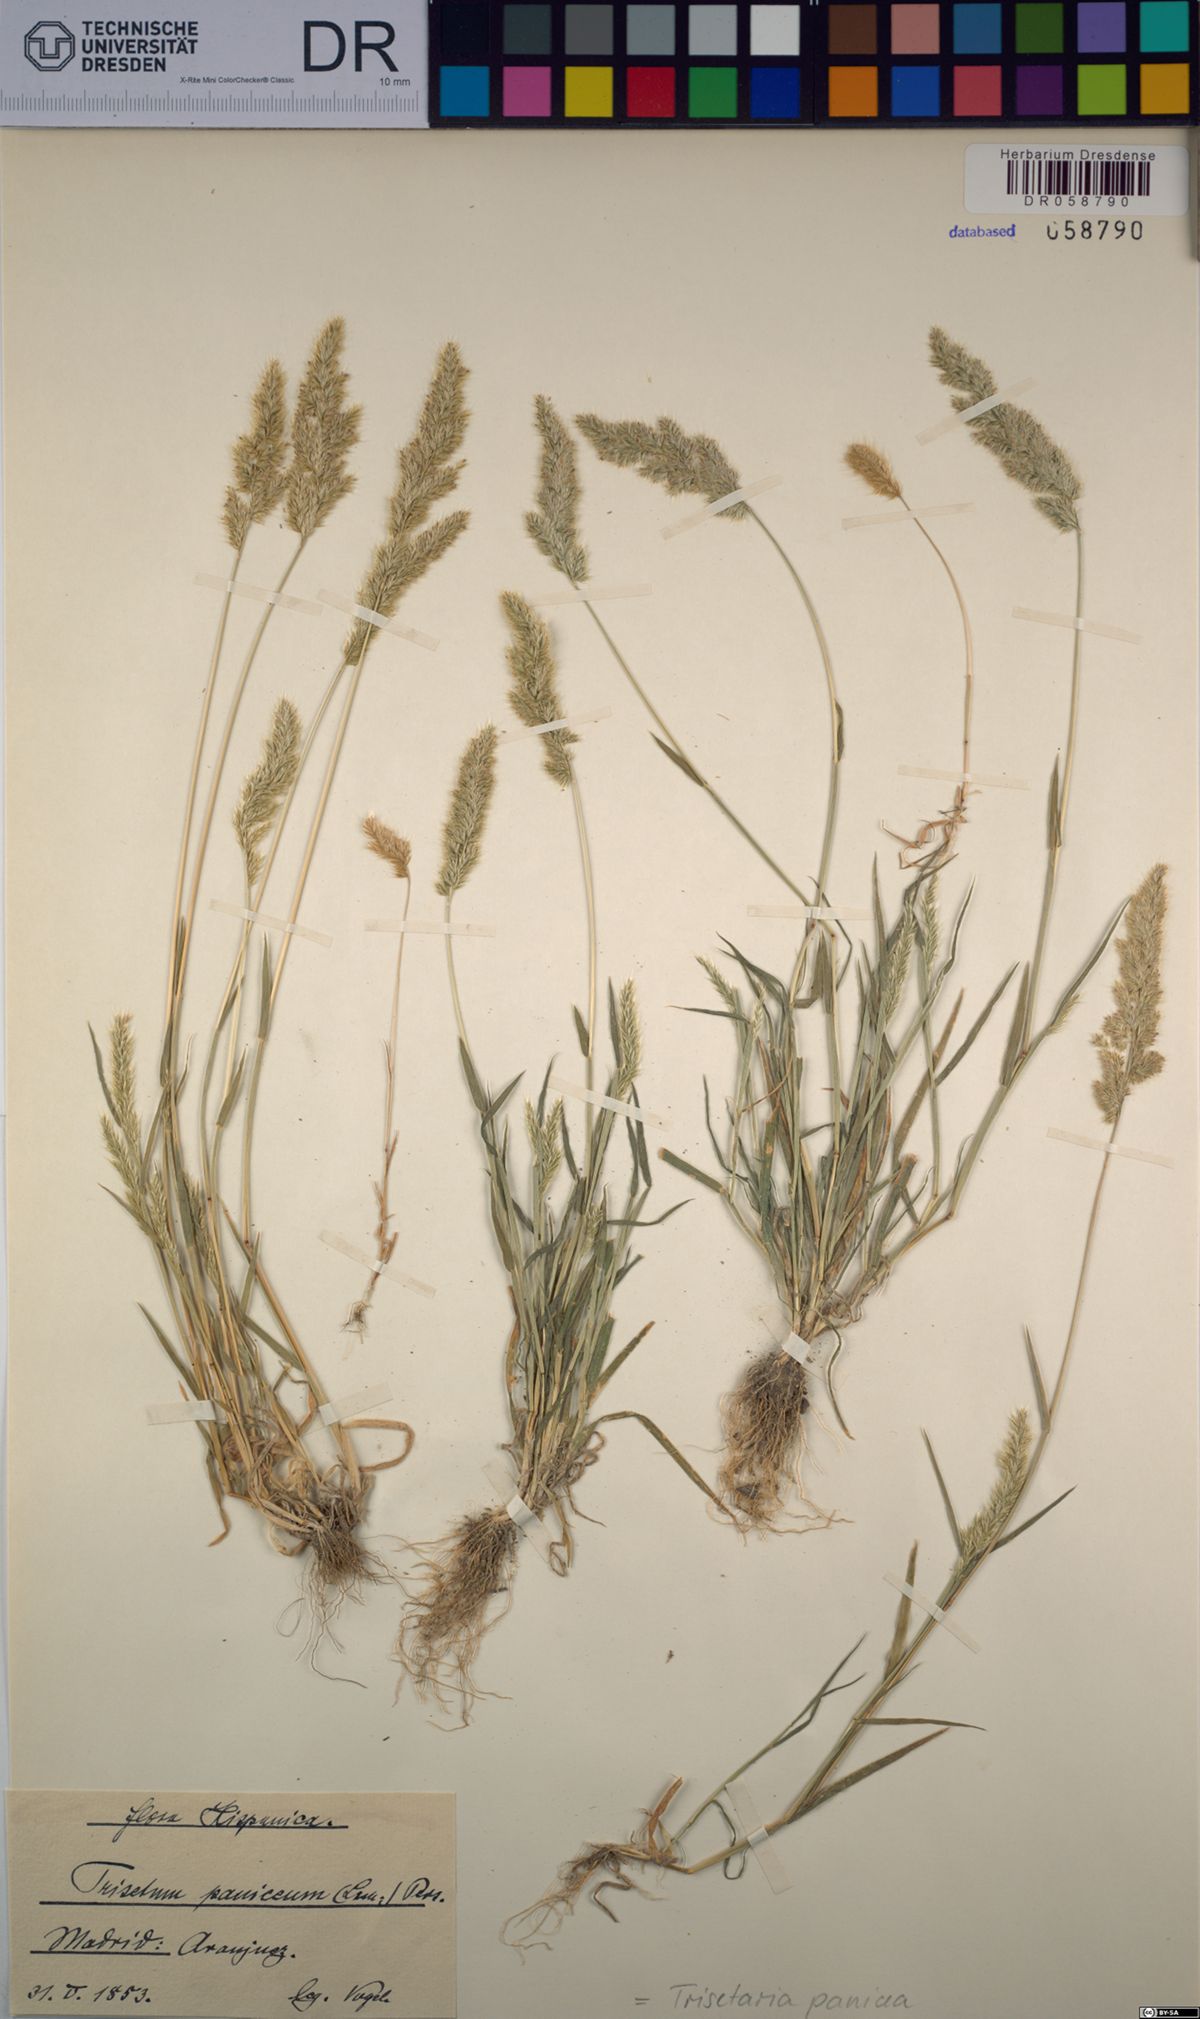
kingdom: Plantae
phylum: Tracheophyta
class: Liliopsida
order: Poales
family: Poaceae
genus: Trisetaria
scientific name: Trisetaria panicea
